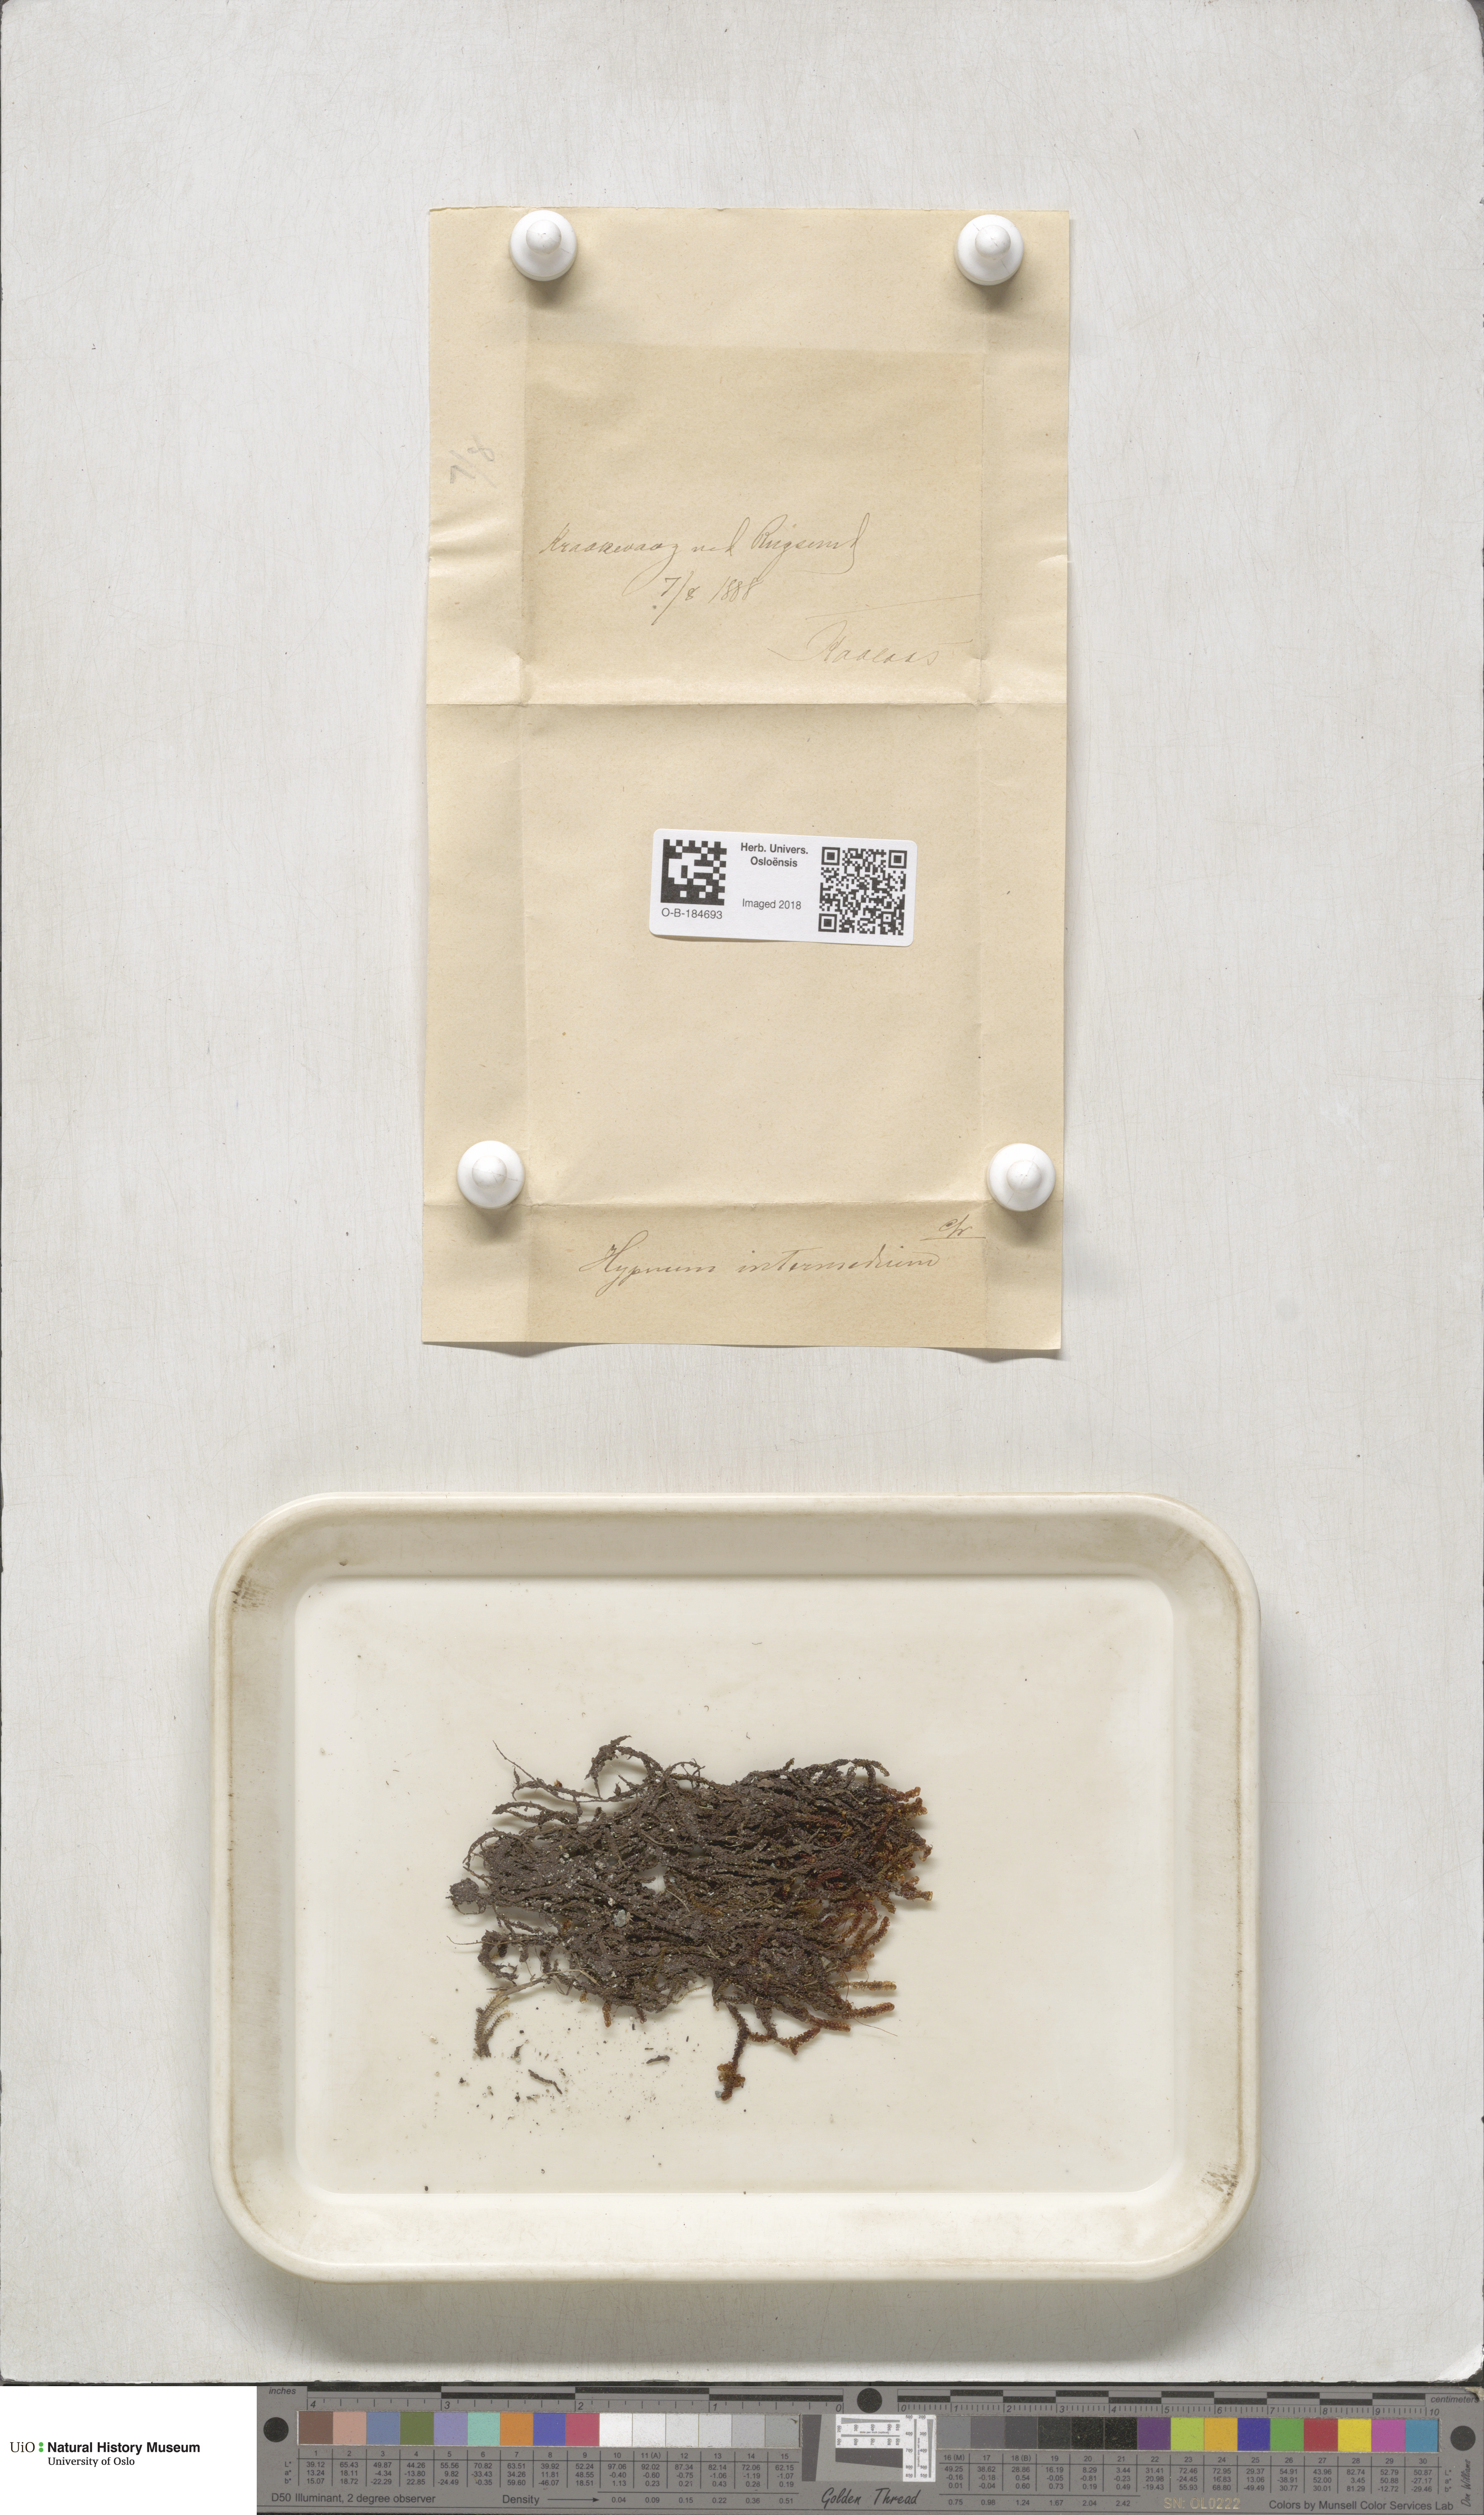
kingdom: Plantae
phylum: Bryophyta
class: Bryopsida
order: Hypnales
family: Scorpidiaceae
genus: Scorpidium
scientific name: Scorpidium cossonii
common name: Cosson's hook moss
